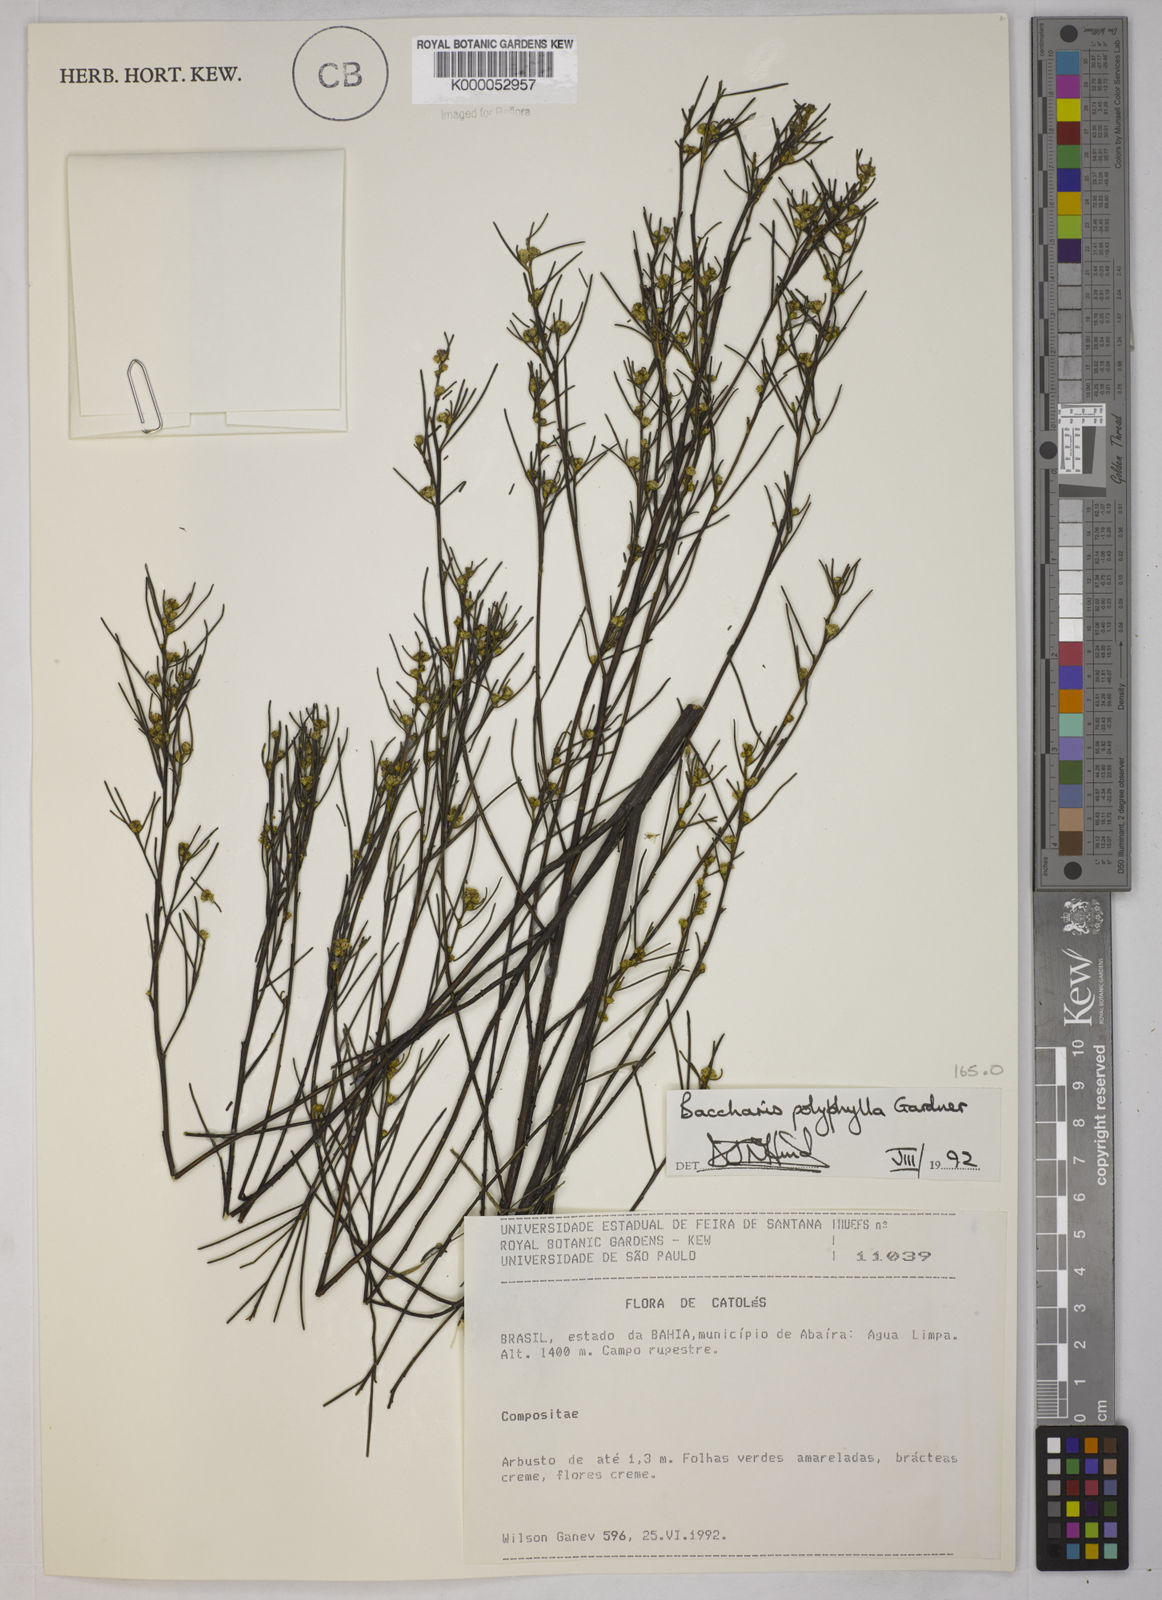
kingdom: Plantae
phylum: Tracheophyta
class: Magnoliopsida
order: Asterales
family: Asteraceae
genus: Baccharis
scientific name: Baccharis polyphylla
